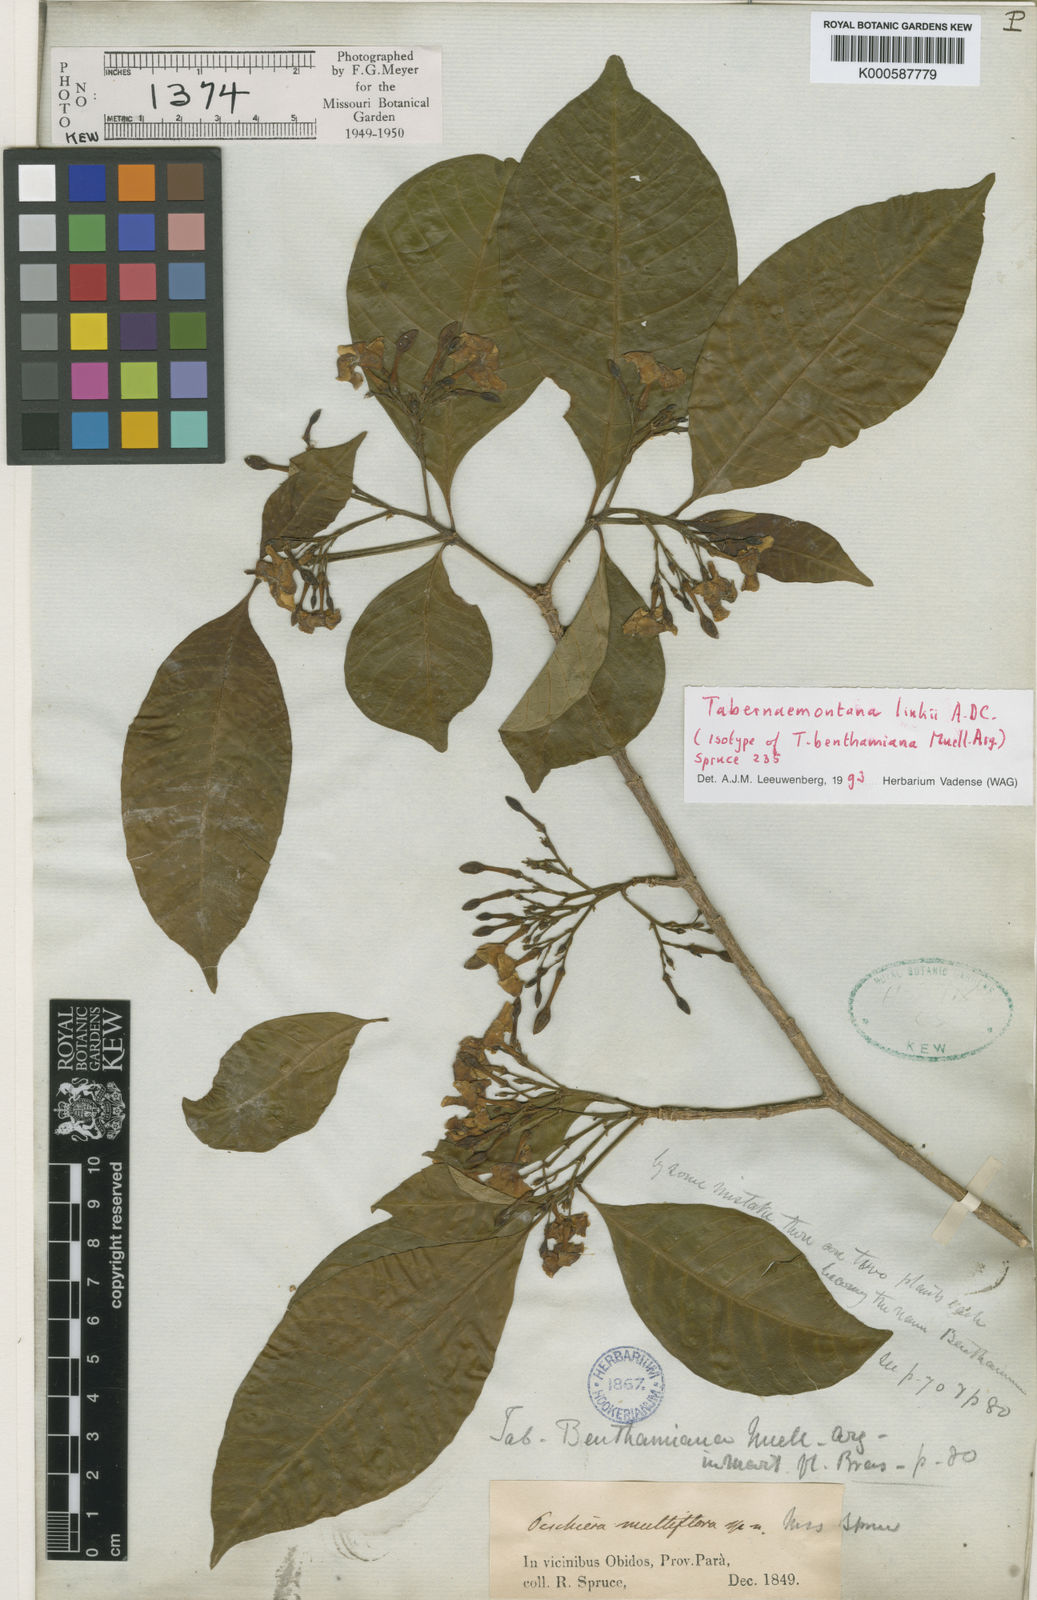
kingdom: Plantae
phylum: Tracheophyta
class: Magnoliopsida
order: Gentianales
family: Apocynaceae
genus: Tabernaemontana
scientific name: Tabernaemontana linkii
